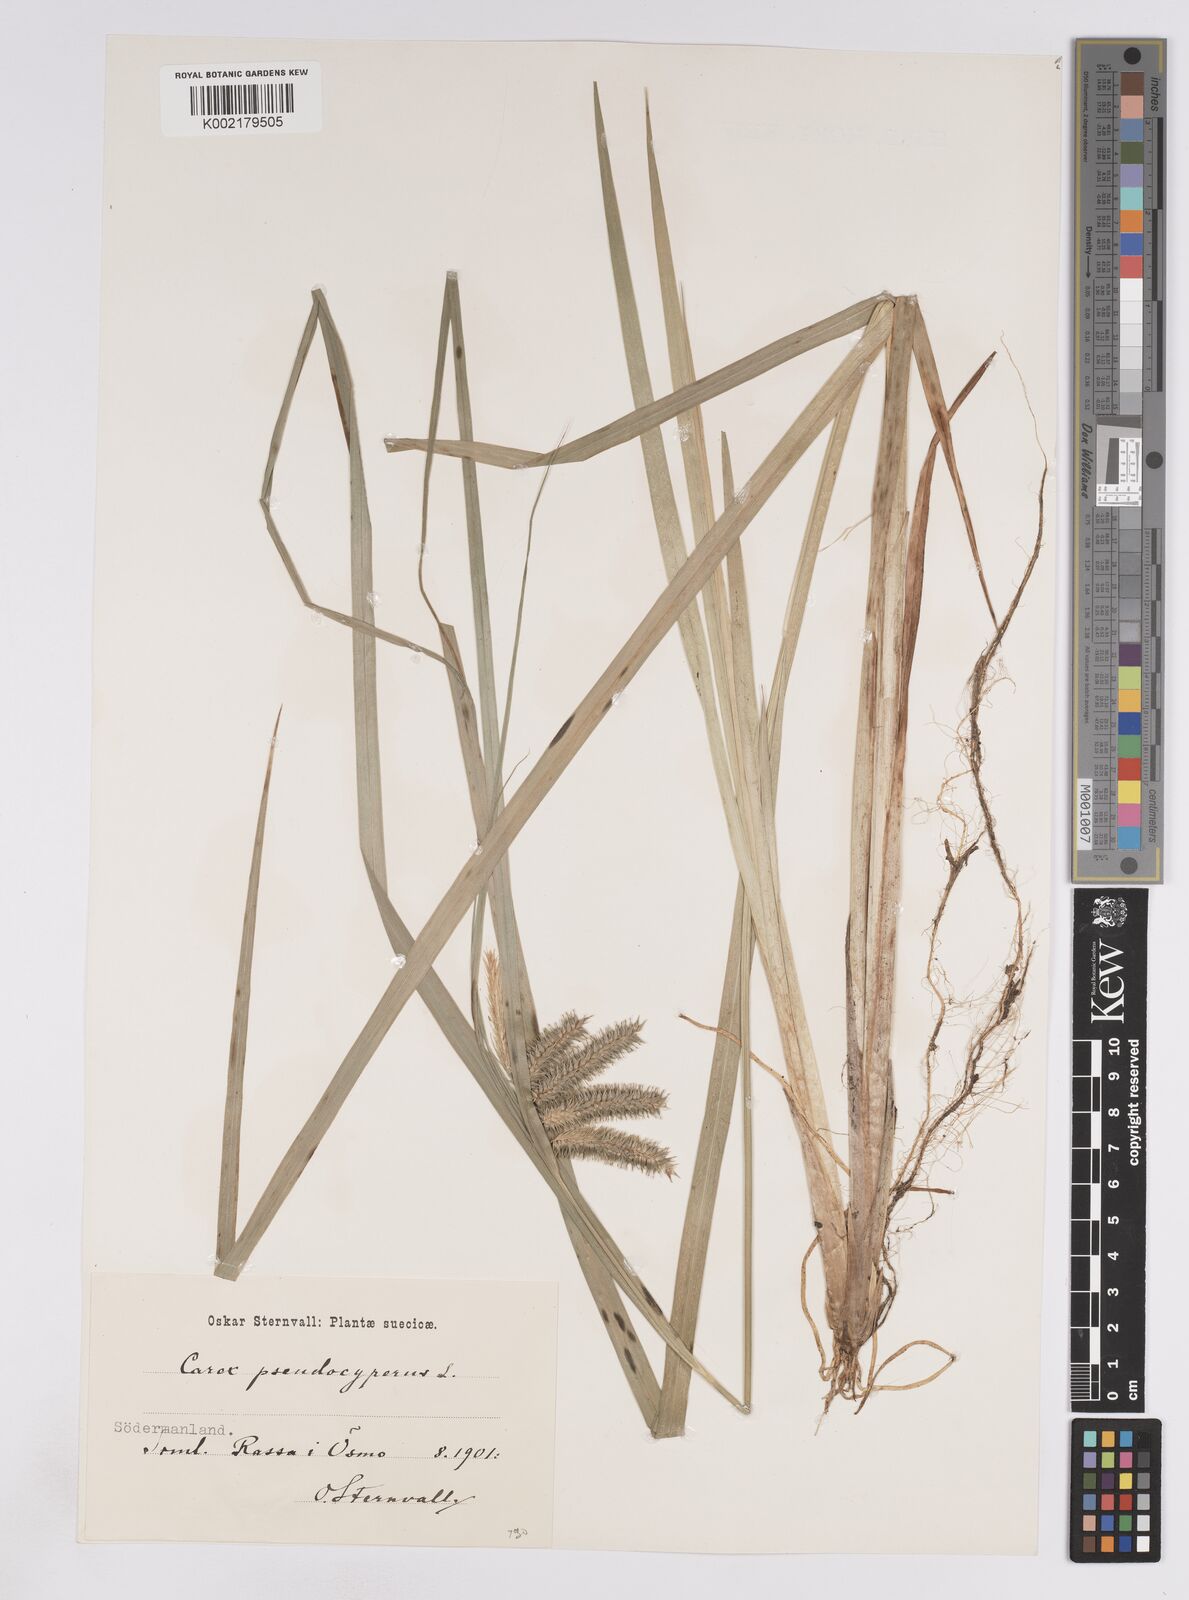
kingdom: Plantae
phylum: Tracheophyta
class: Liliopsida
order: Poales
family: Cyperaceae
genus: Carex
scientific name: Carex pseudocyperus
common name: Cyperus sedge
